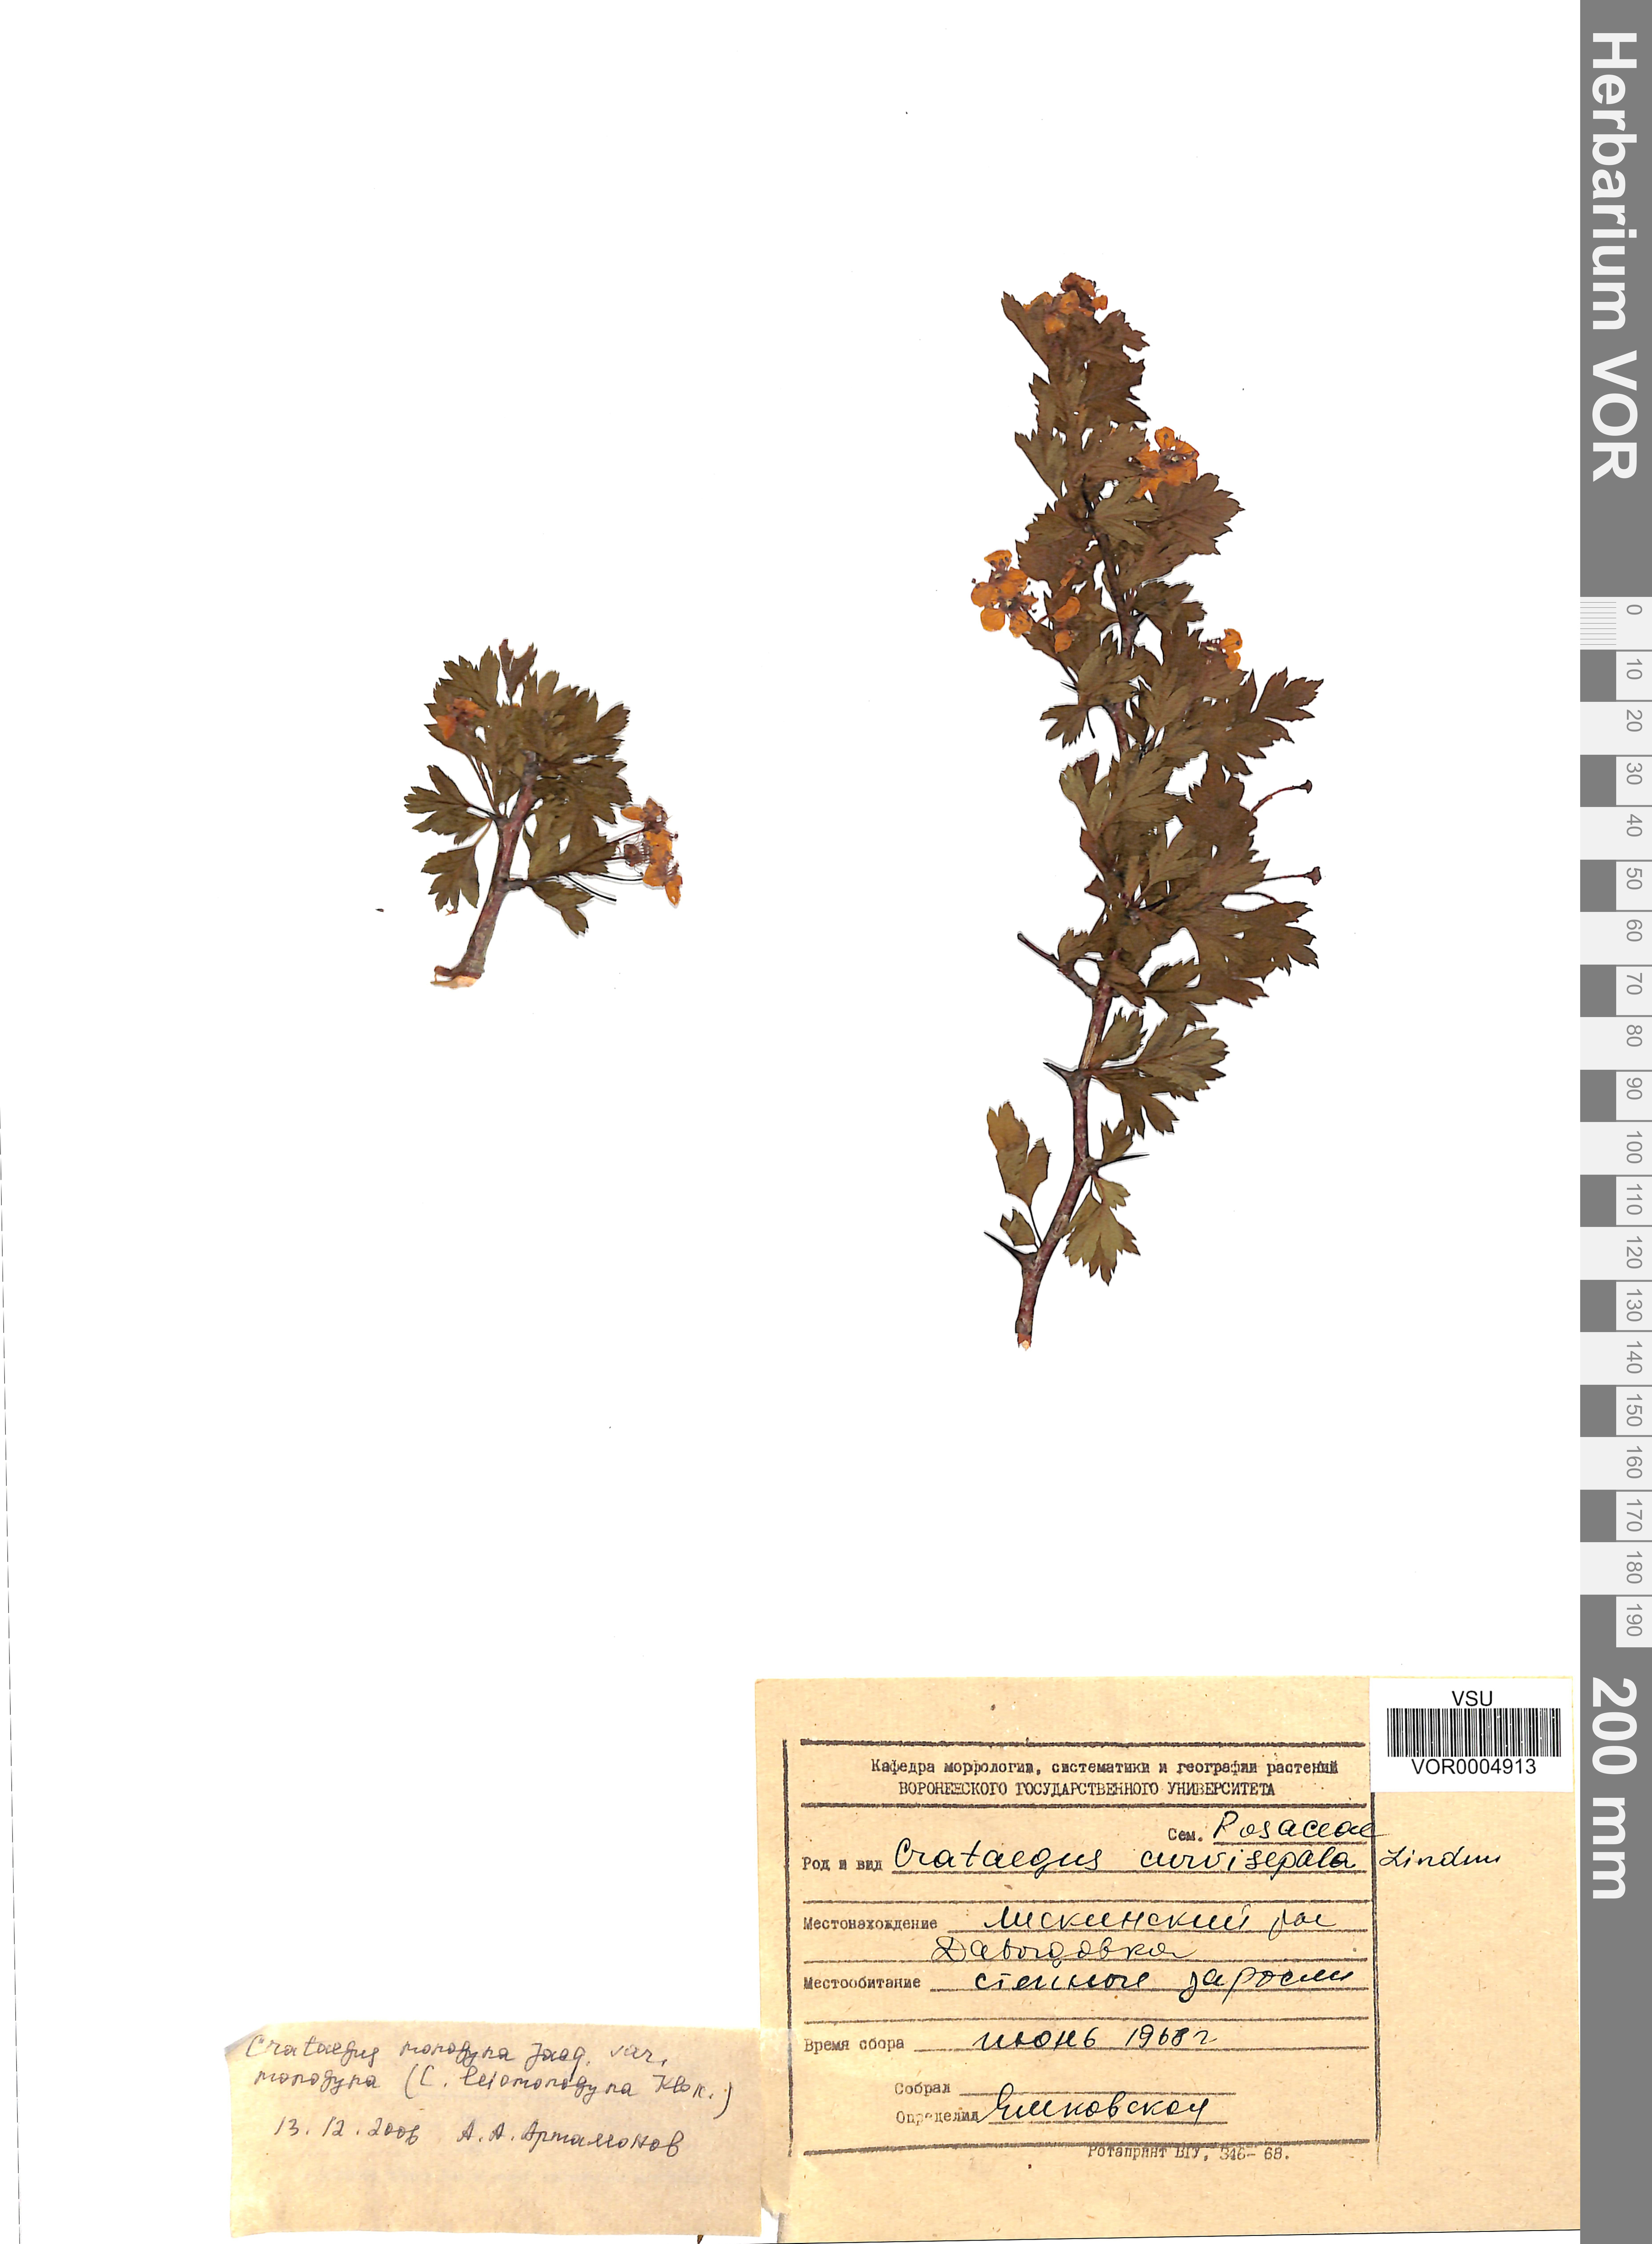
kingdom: Plantae
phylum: Tracheophyta
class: Magnoliopsida
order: Rosales
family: Rosaceae
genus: Crataegus
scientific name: Crataegus monogyna
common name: Hawthorn
